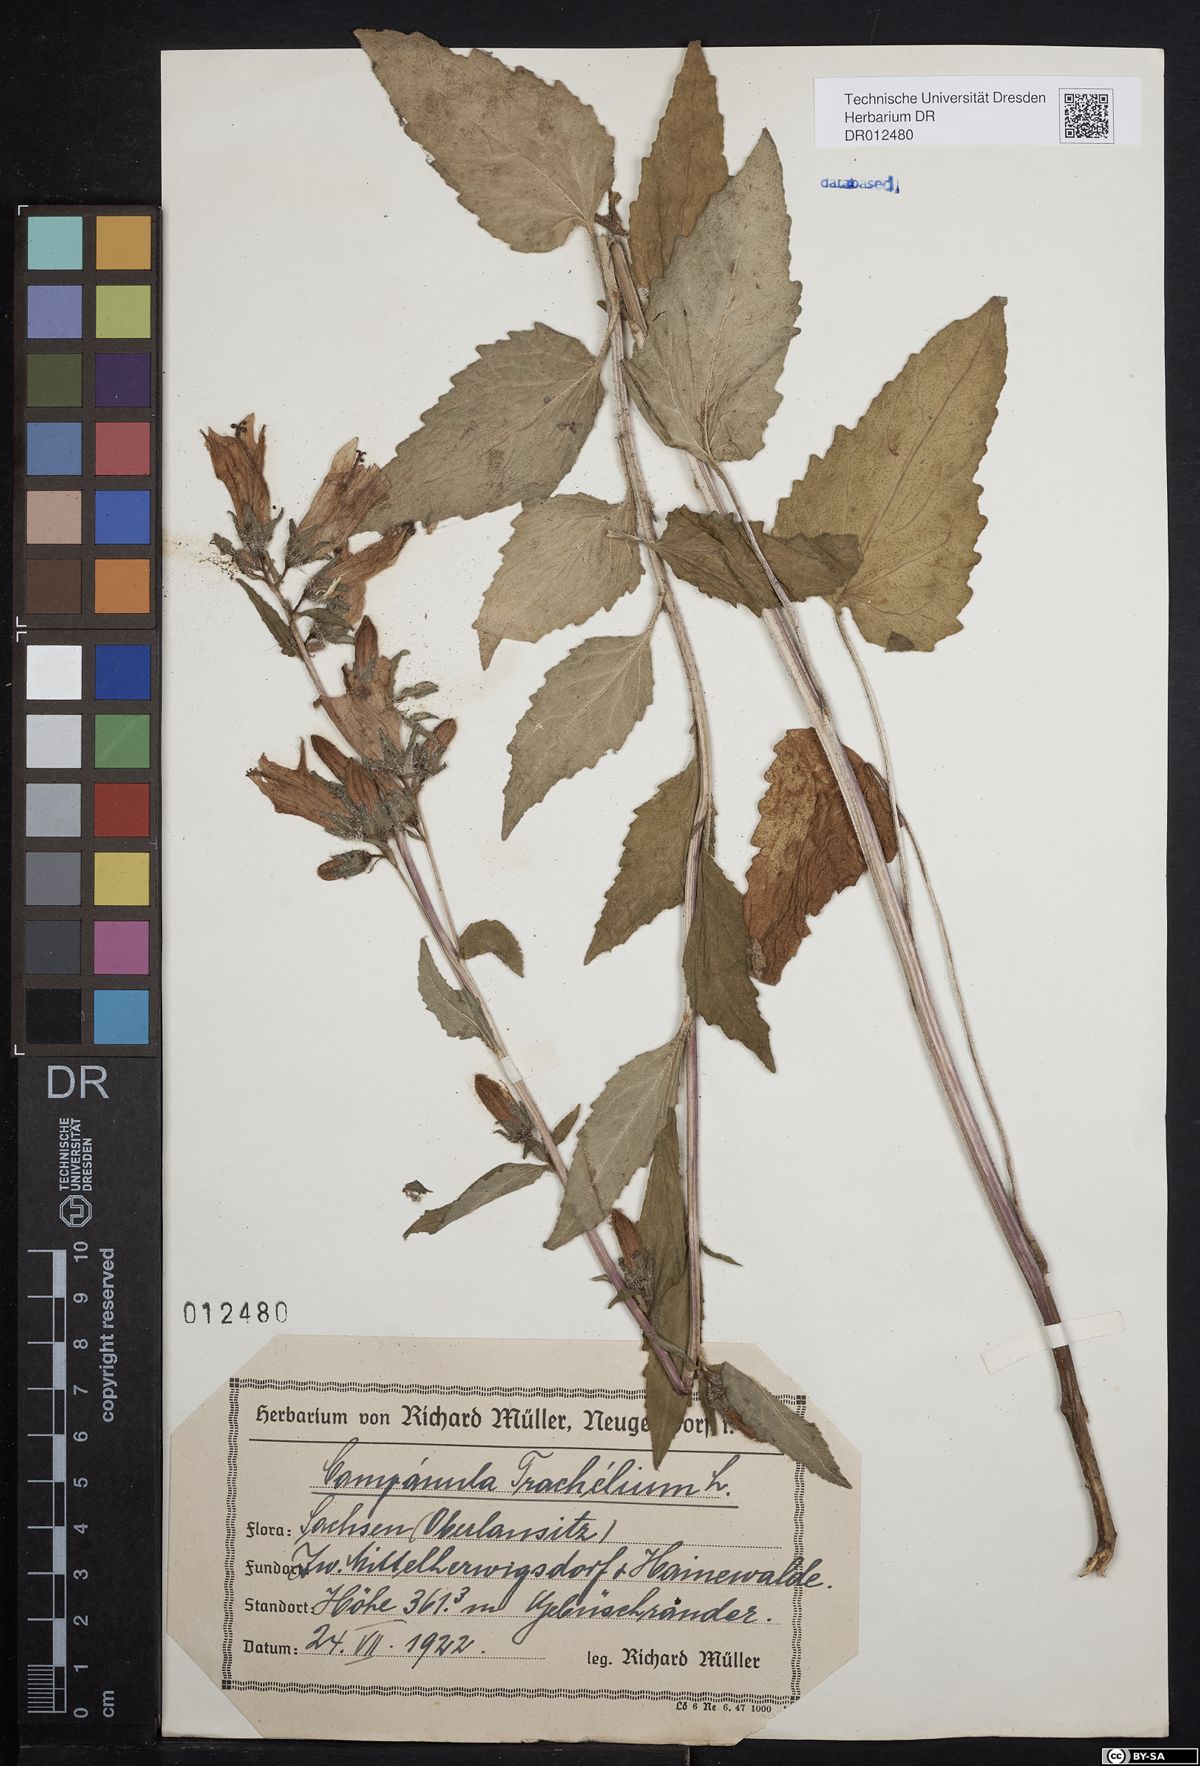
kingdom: Plantae
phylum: Tracheophyta
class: Magnoliopsida
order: Asterales
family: Campanulaceae
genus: Campanula
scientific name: Campanula trachelium
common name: Nettle-leaved bellflower
